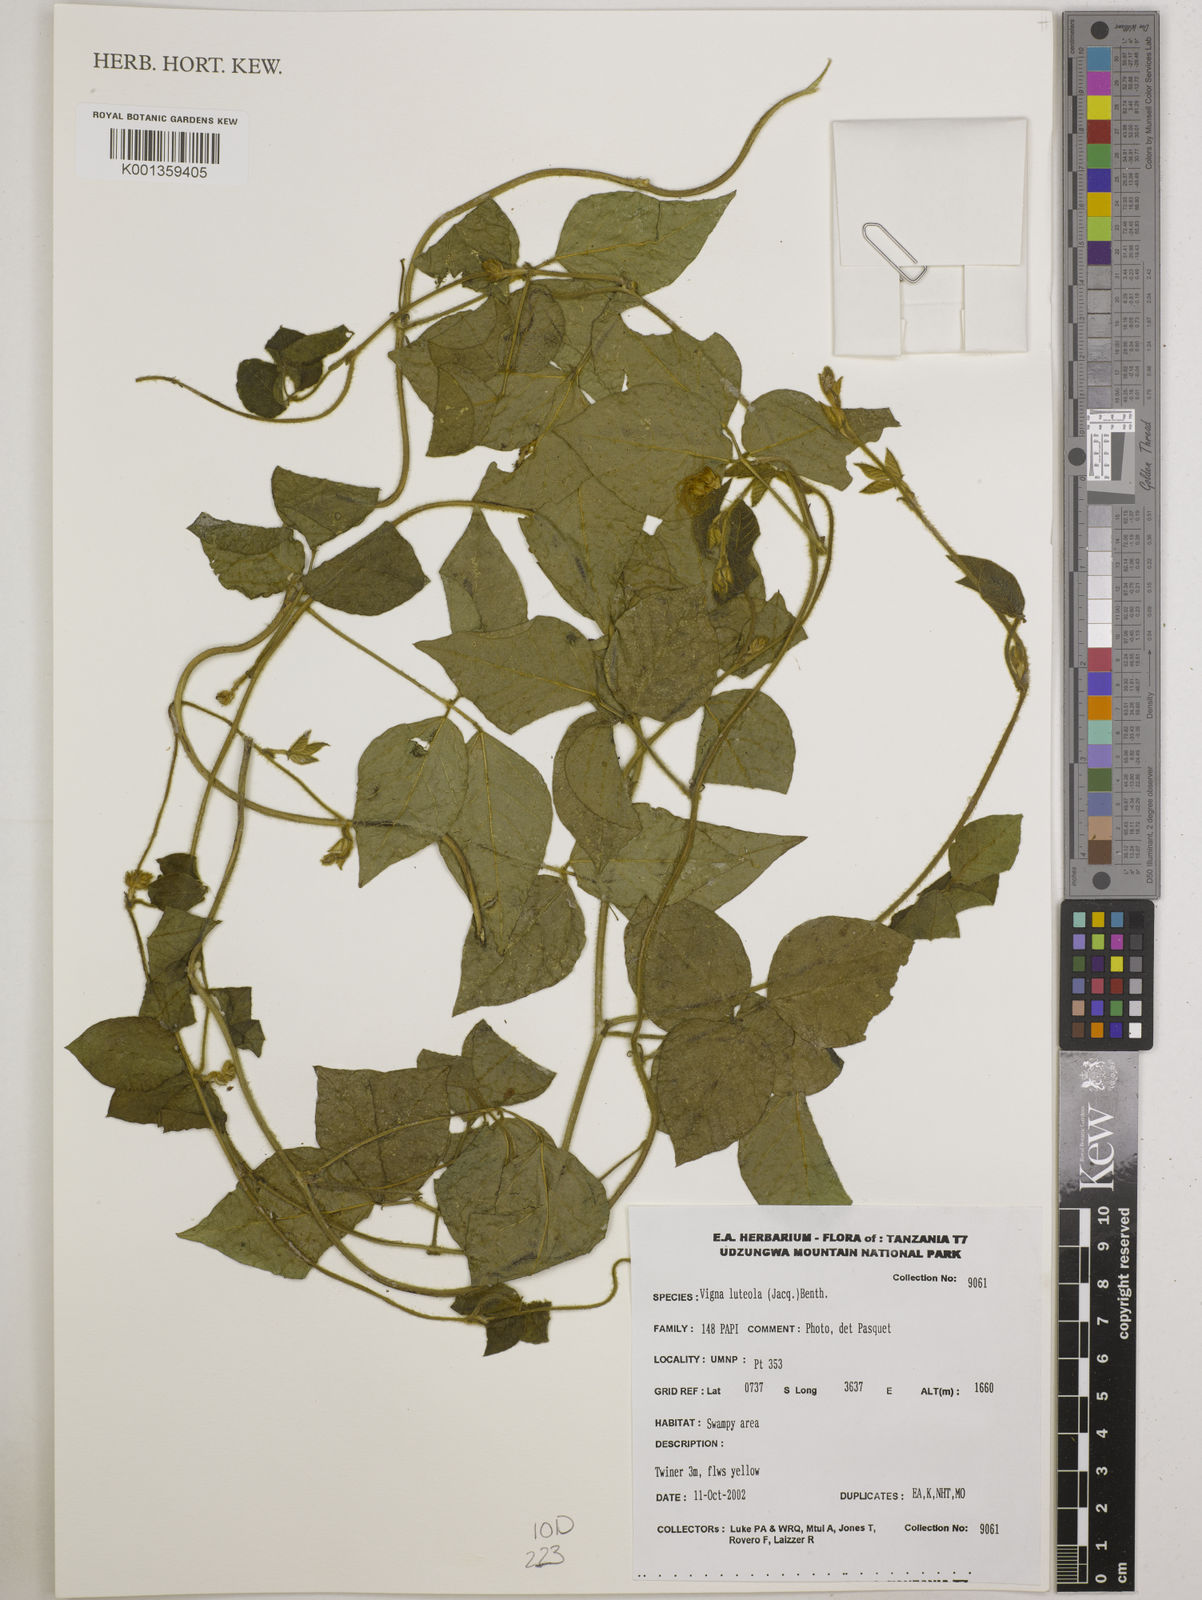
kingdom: Plantae
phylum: Tracheophyta
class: Magnoliopsida
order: Fabales
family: Fabaceae
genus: Vigna
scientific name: Vigna luteola
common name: Hairypod cowpea
